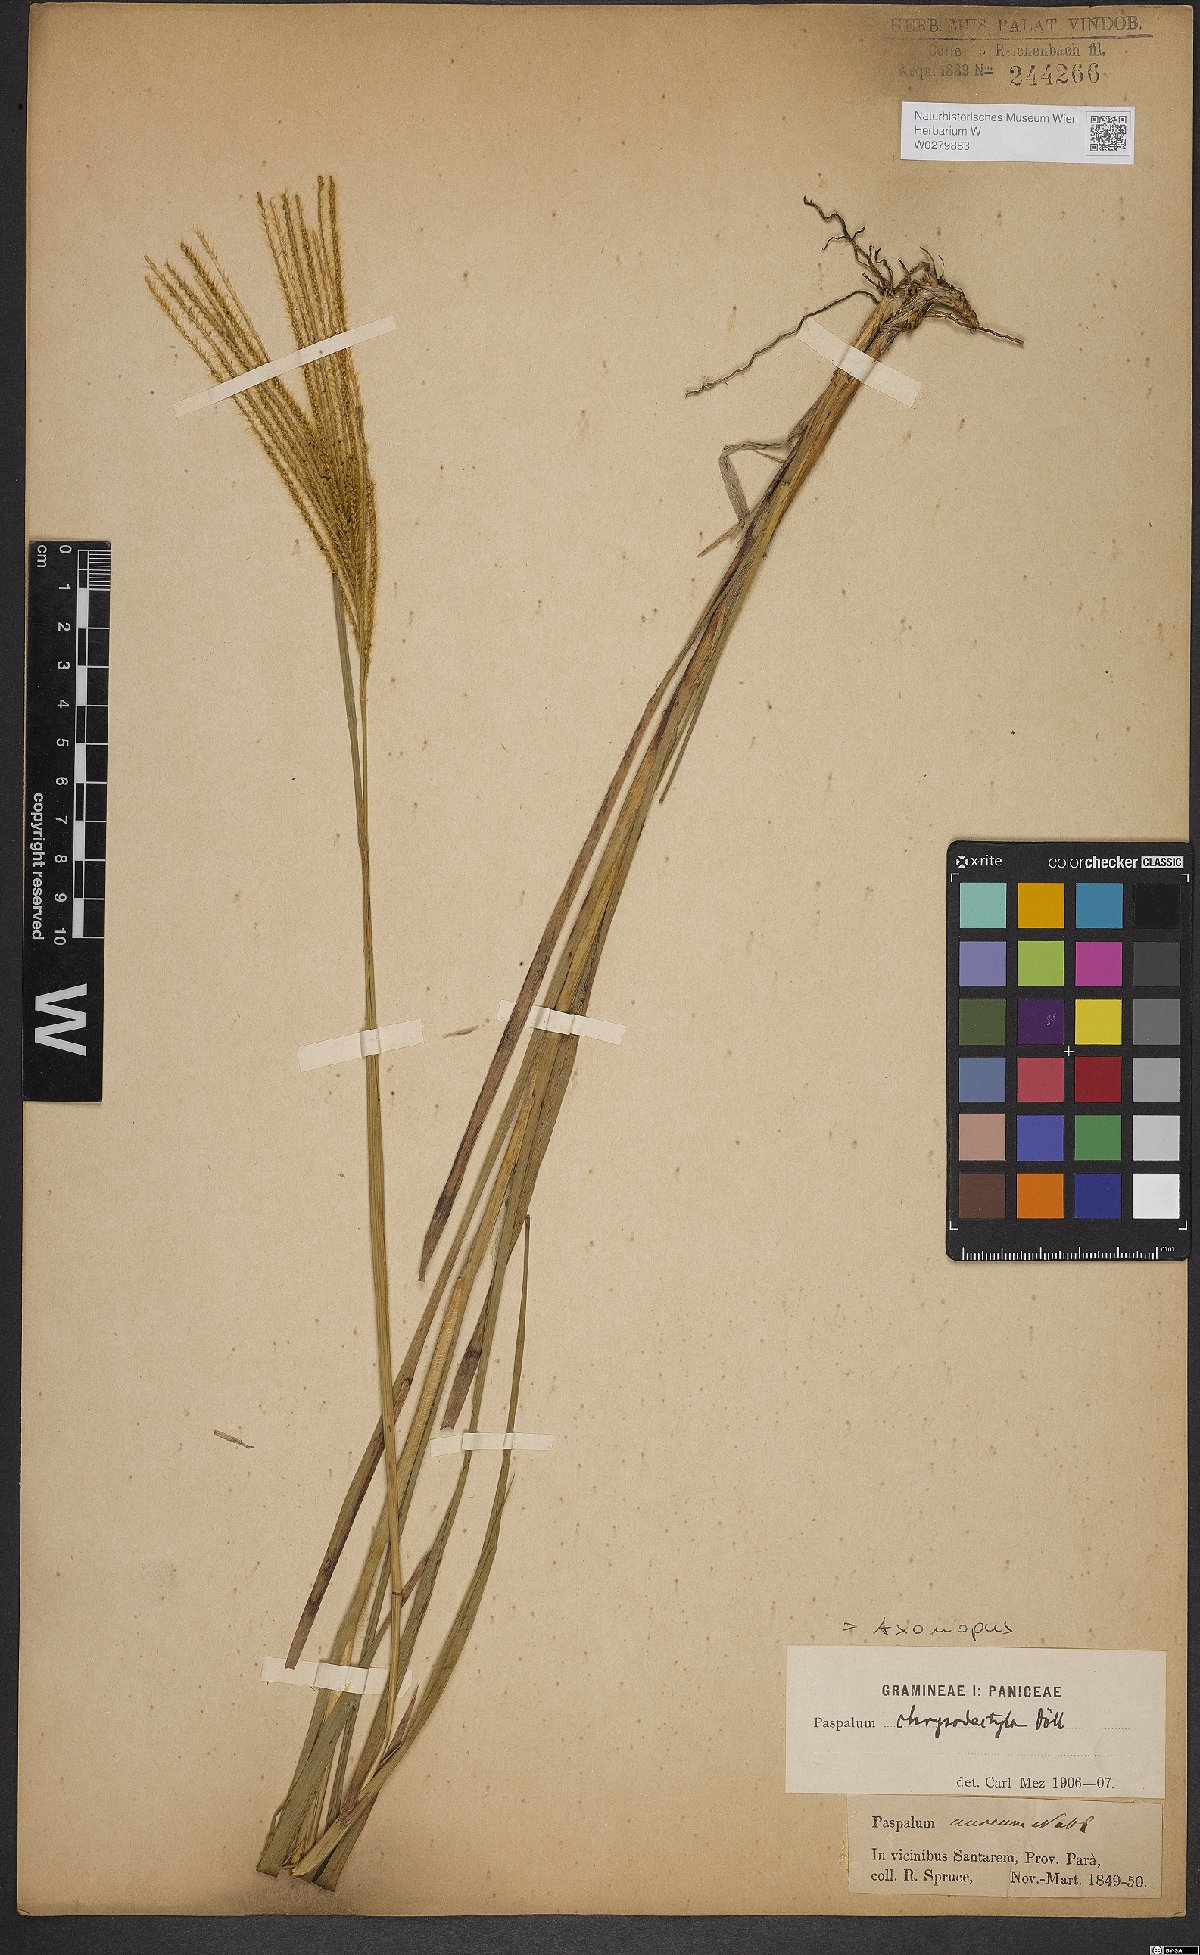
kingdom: Plantae
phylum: Tracheophyta
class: Liliopsida
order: Poales
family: Poaceae
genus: Axonopus
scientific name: Axonopus aureus
